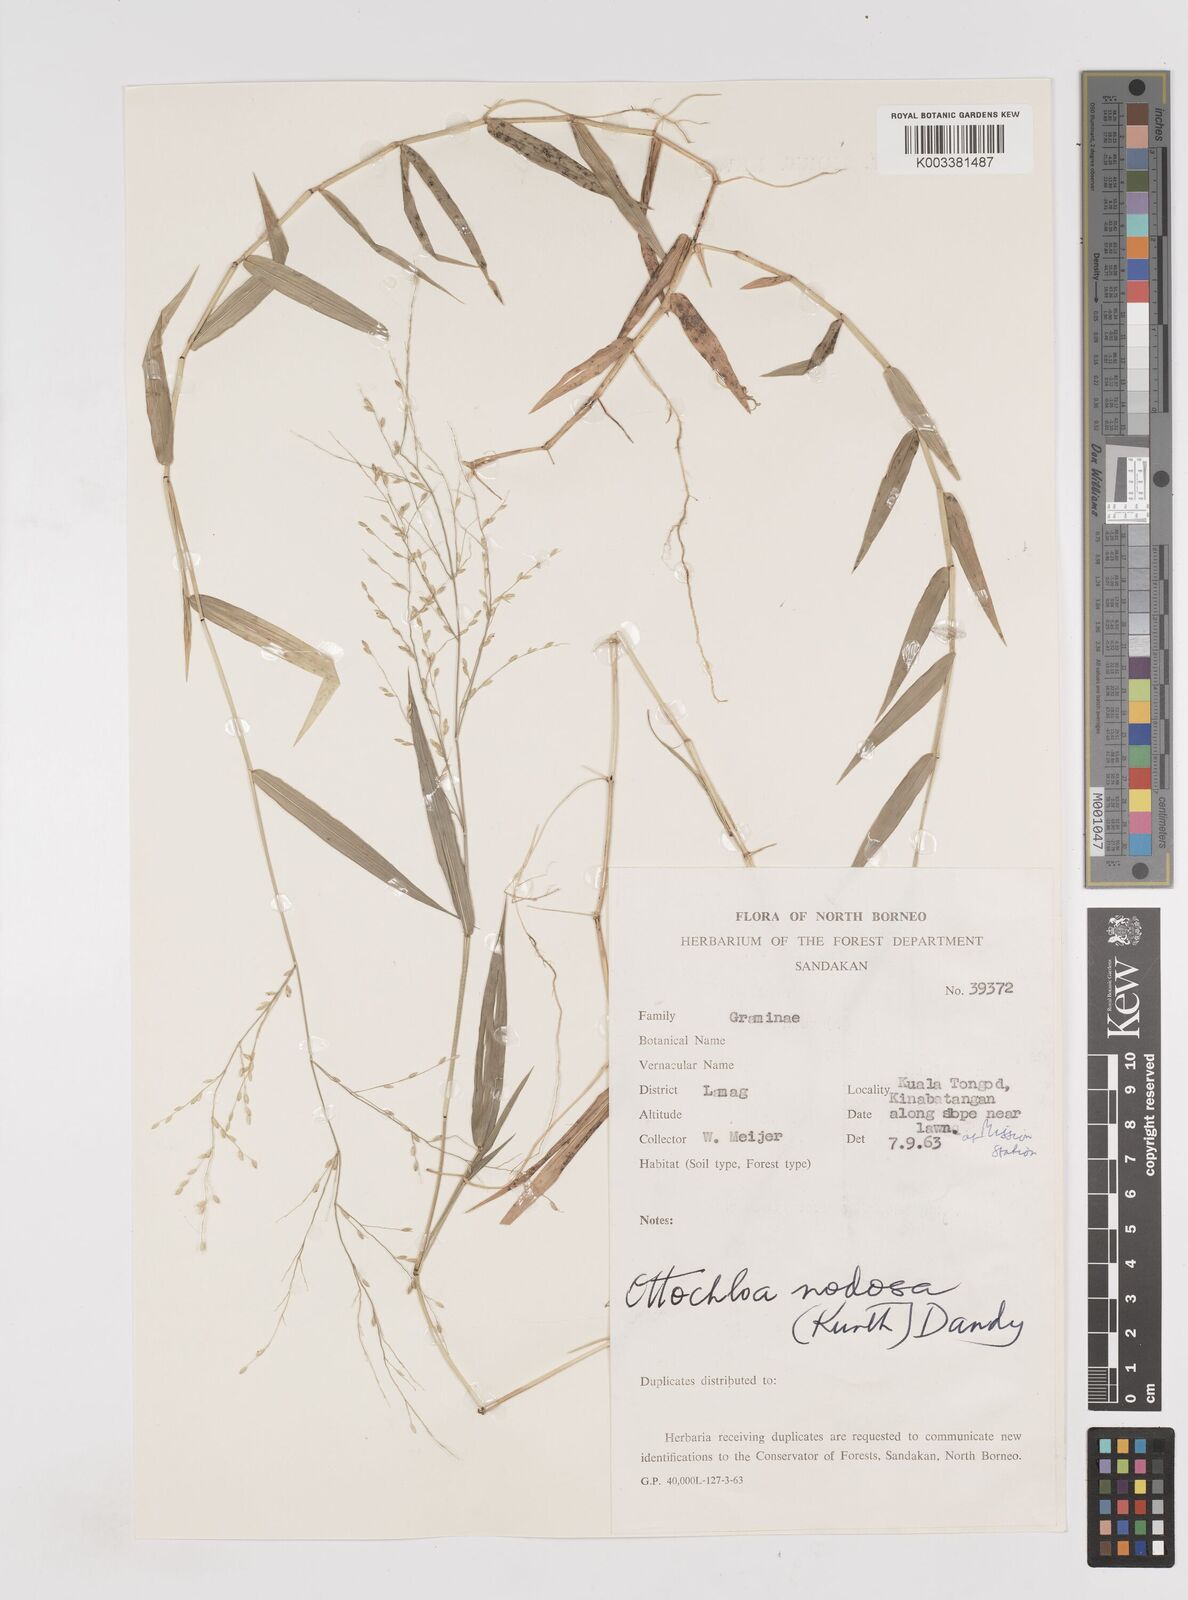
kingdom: Plantae
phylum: Tracheophyta
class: Liliopsida
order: Poales
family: Poaceae
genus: Ottochloa
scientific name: Ottochloa nodosa
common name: Slender-panic grass
